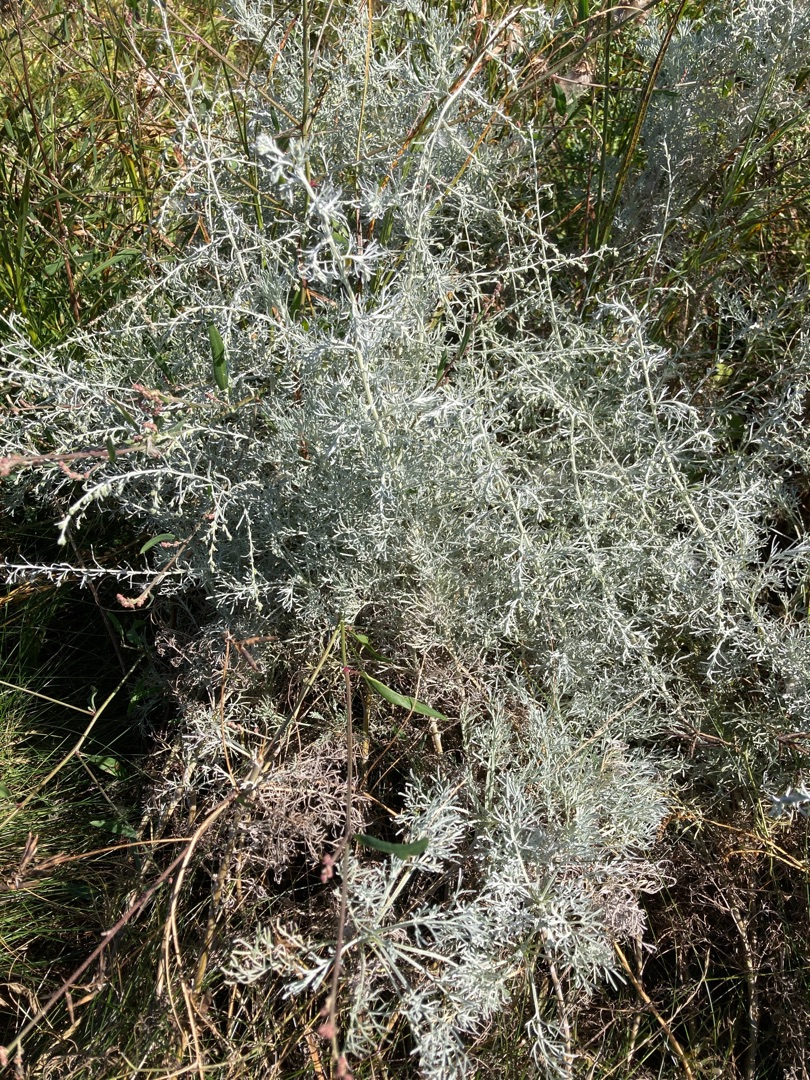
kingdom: Plantae
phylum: Tracheophyta
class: Magnoliopsida
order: Asterales
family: Asteraceae
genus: Artemisia
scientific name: Artemisia
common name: Bynkeslægten
